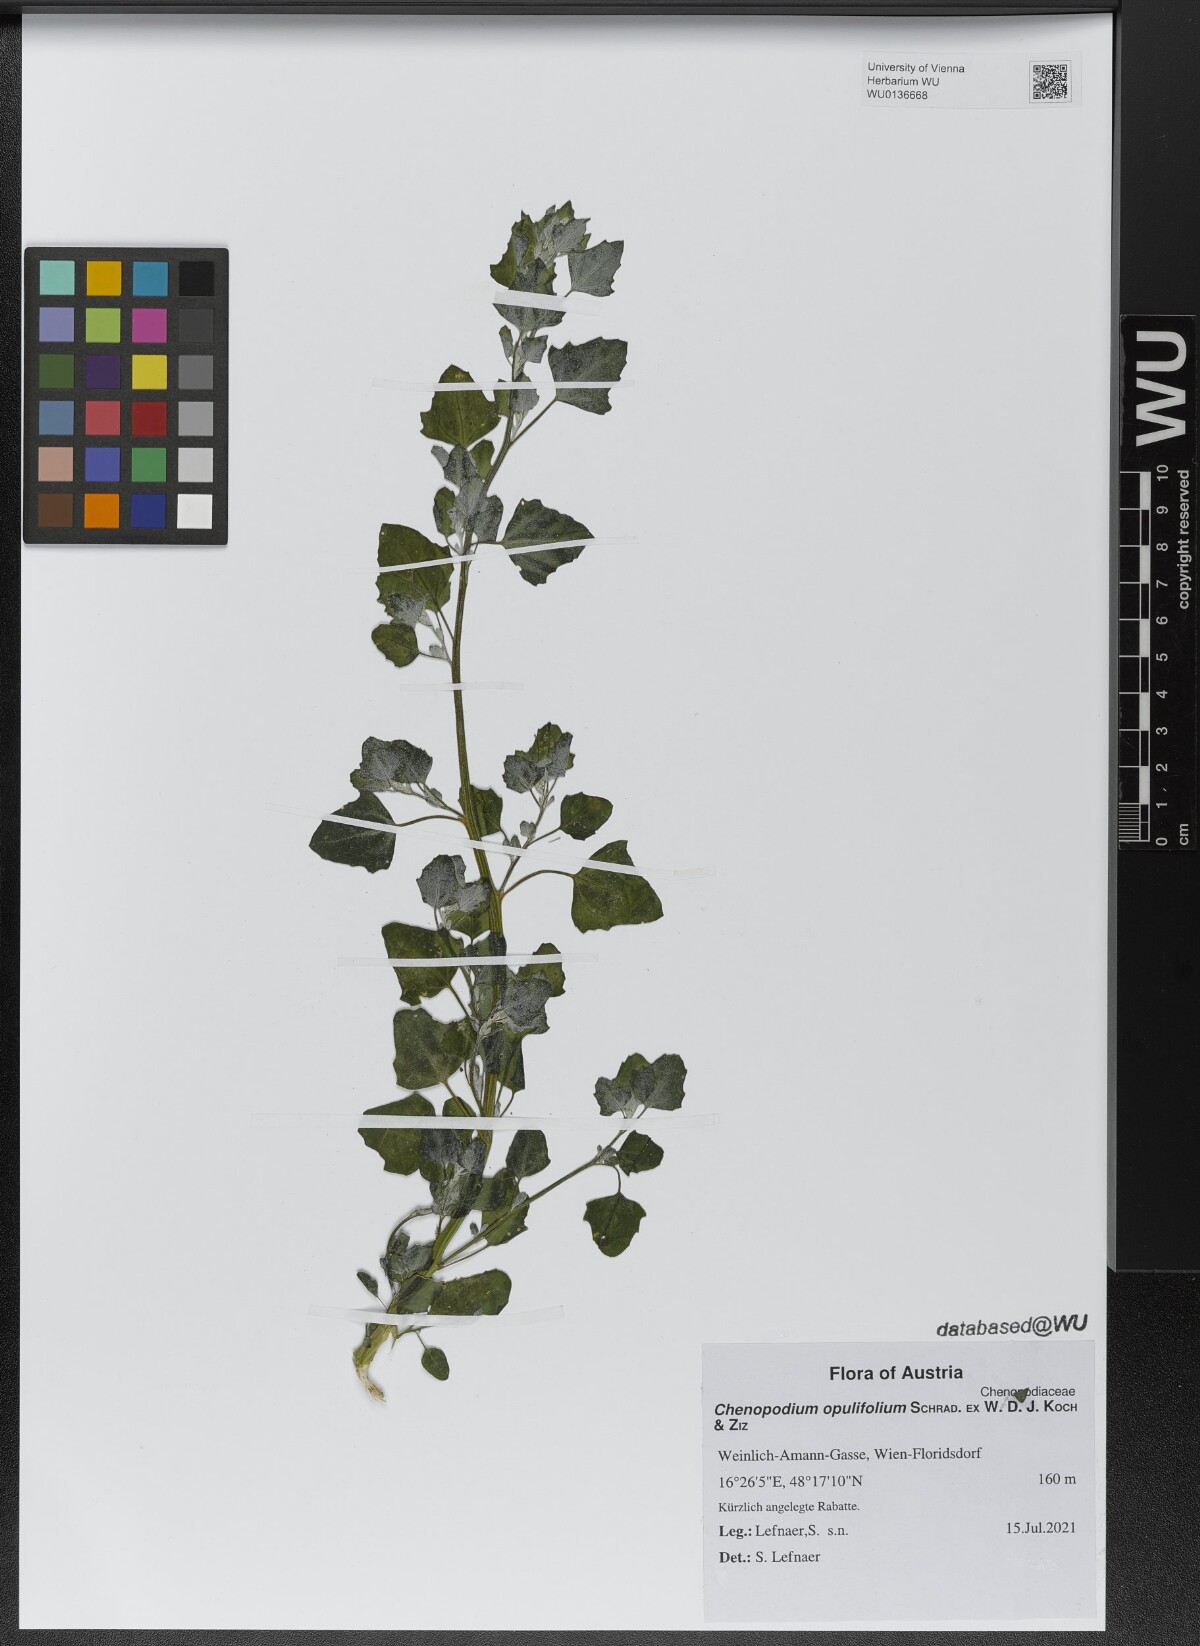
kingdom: Plantae
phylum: Tracheophyta
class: Magnoliopsida
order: Caryophyllales
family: Amaranthaceae
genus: Chenopodium
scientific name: Chenopodium opulifolium
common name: Grey goosefoot
